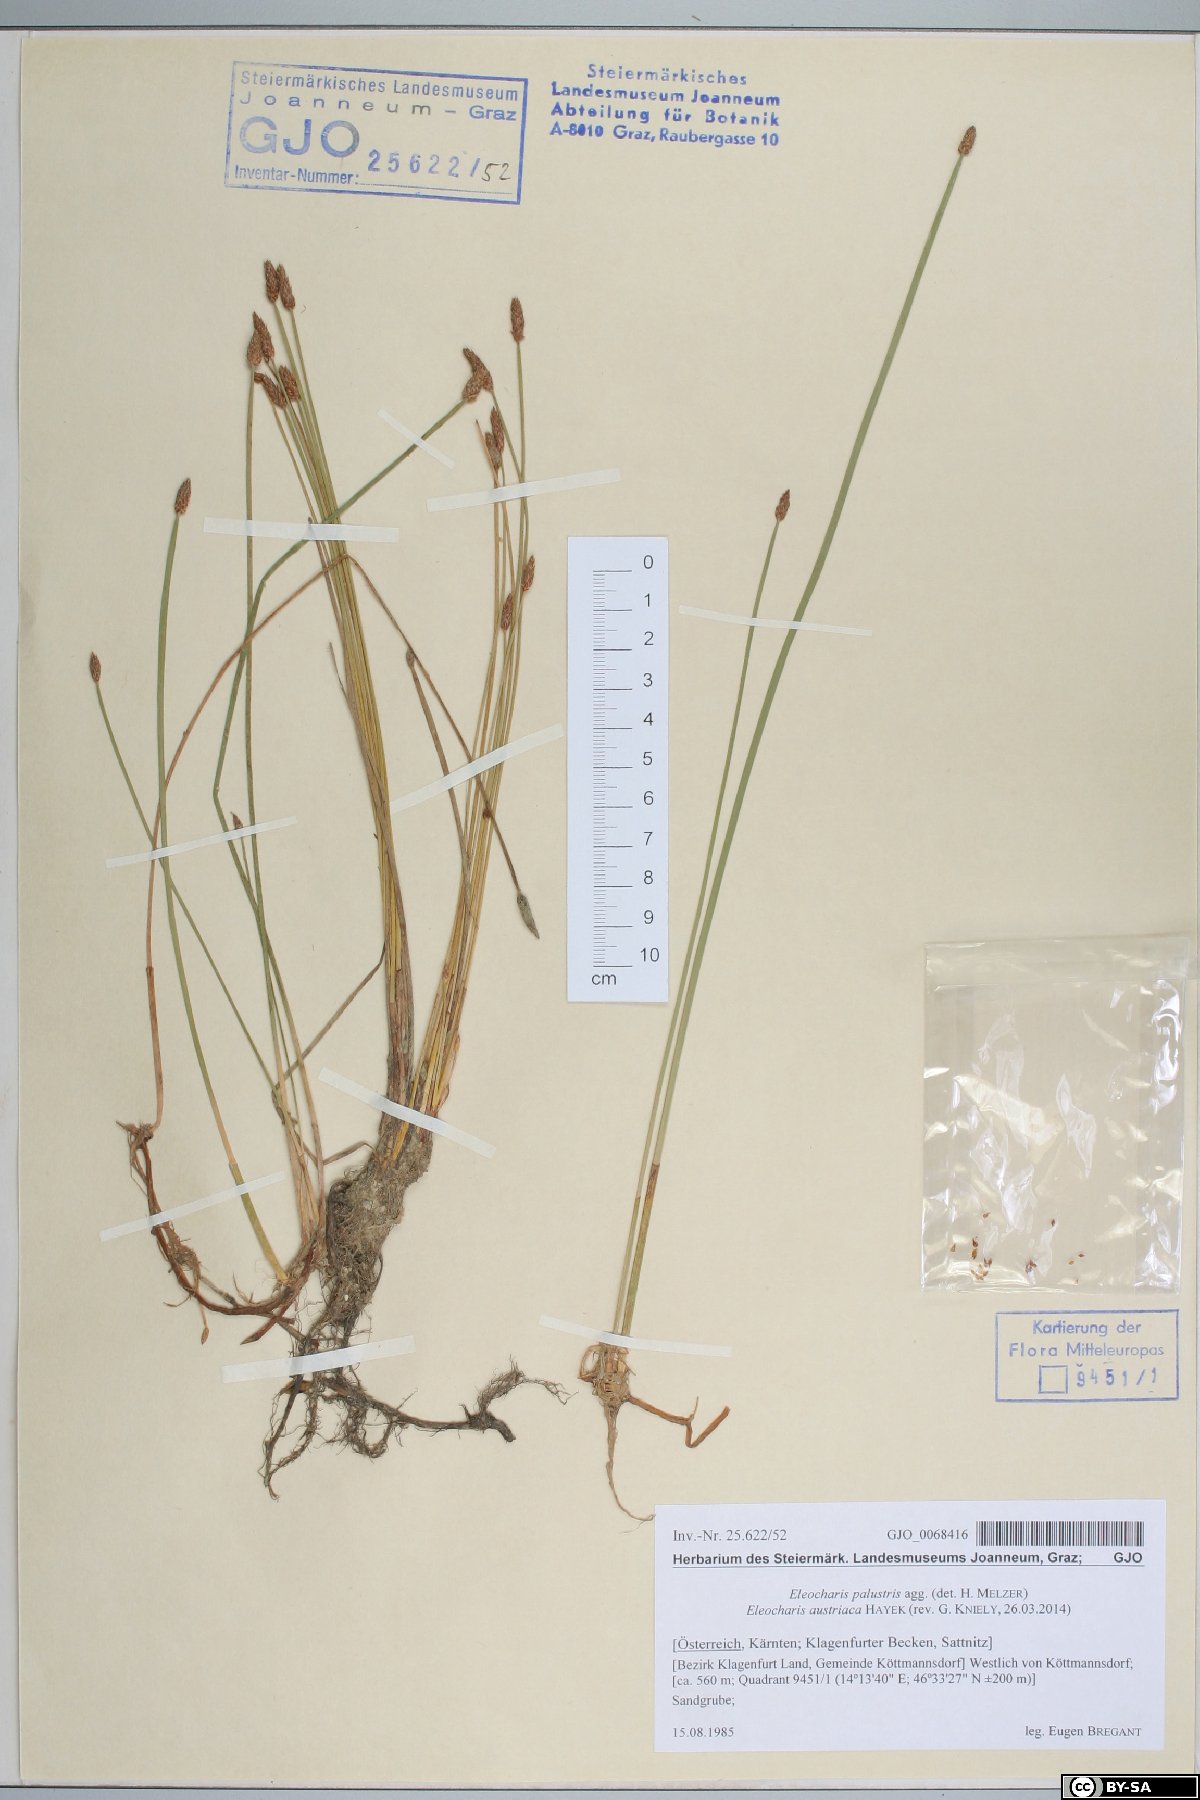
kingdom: Plantae
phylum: Tracheophyta
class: Liliopsida
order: Poales
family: Cyperaceae
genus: Eleocharis
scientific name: Eleocharis mamillata
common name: Northern spike-rush
